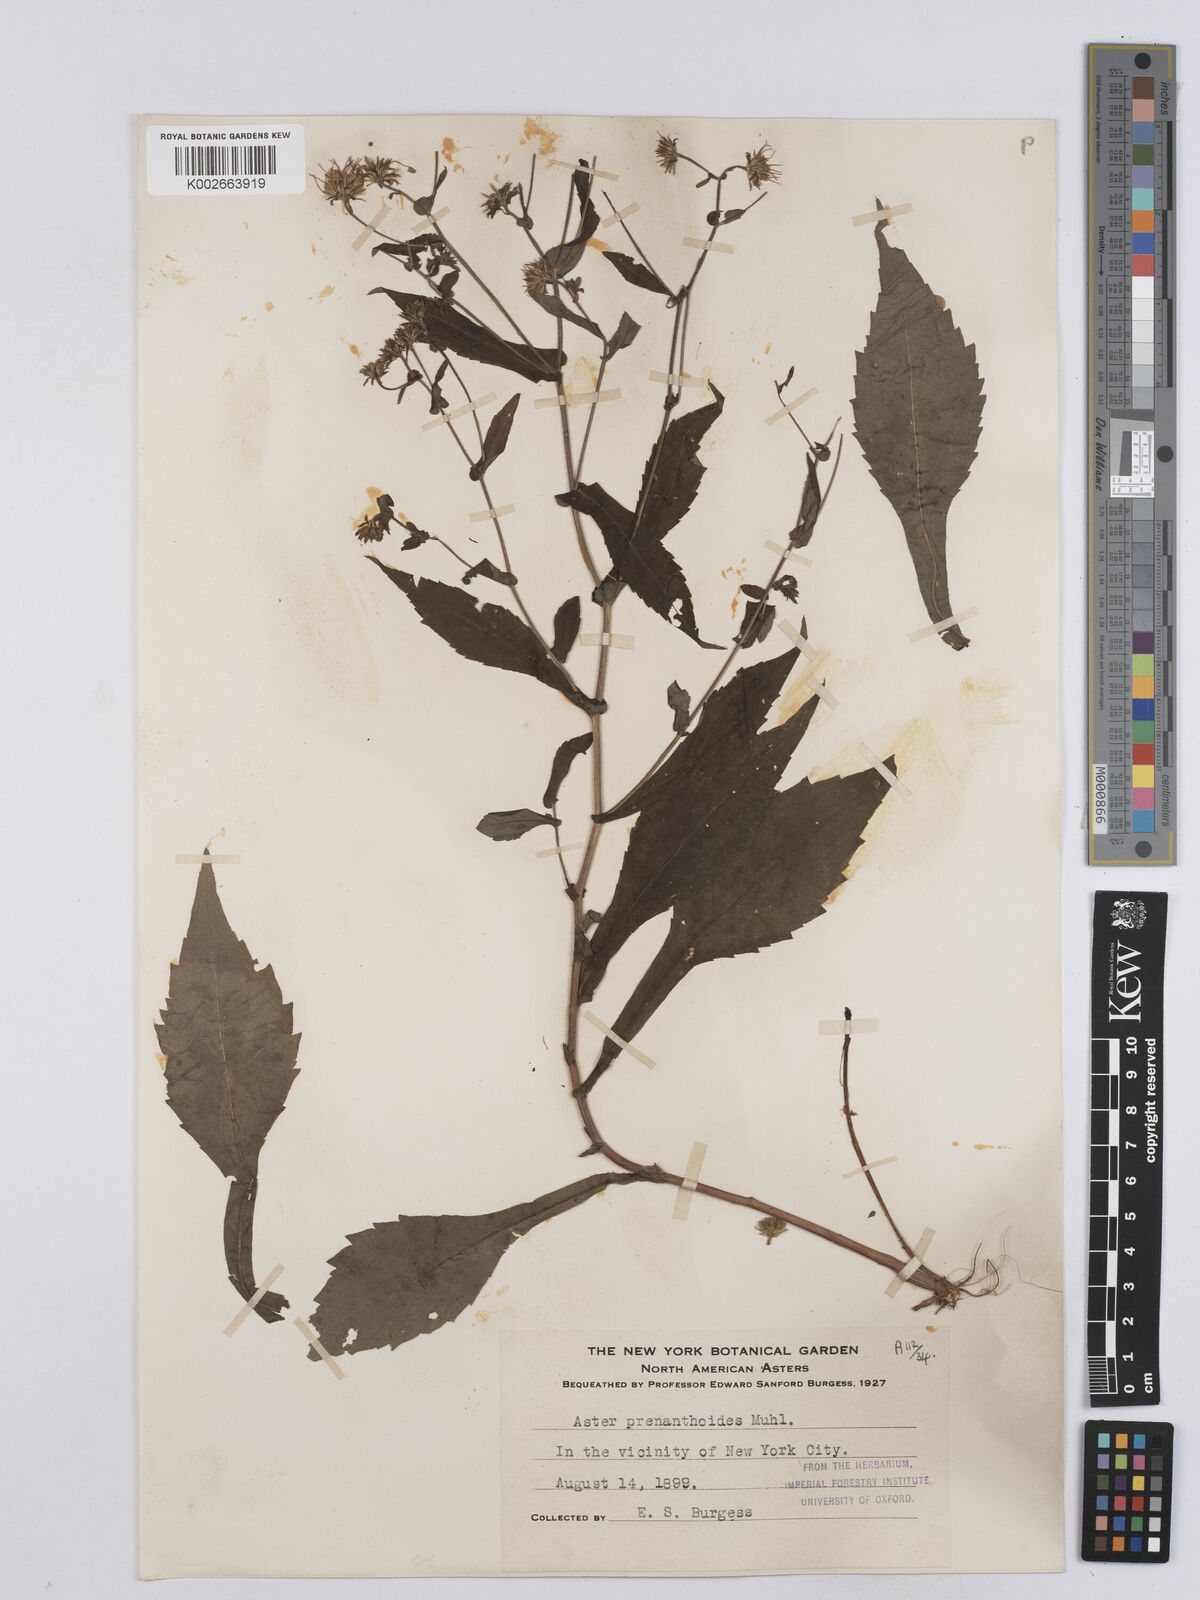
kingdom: Plantae
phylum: Tracheophyta
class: Magnoliopsida
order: Asterales
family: Asteraceae
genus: Symphyotrichum
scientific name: Symphyotrichum prenanthoides
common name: Crooked-stem aster
